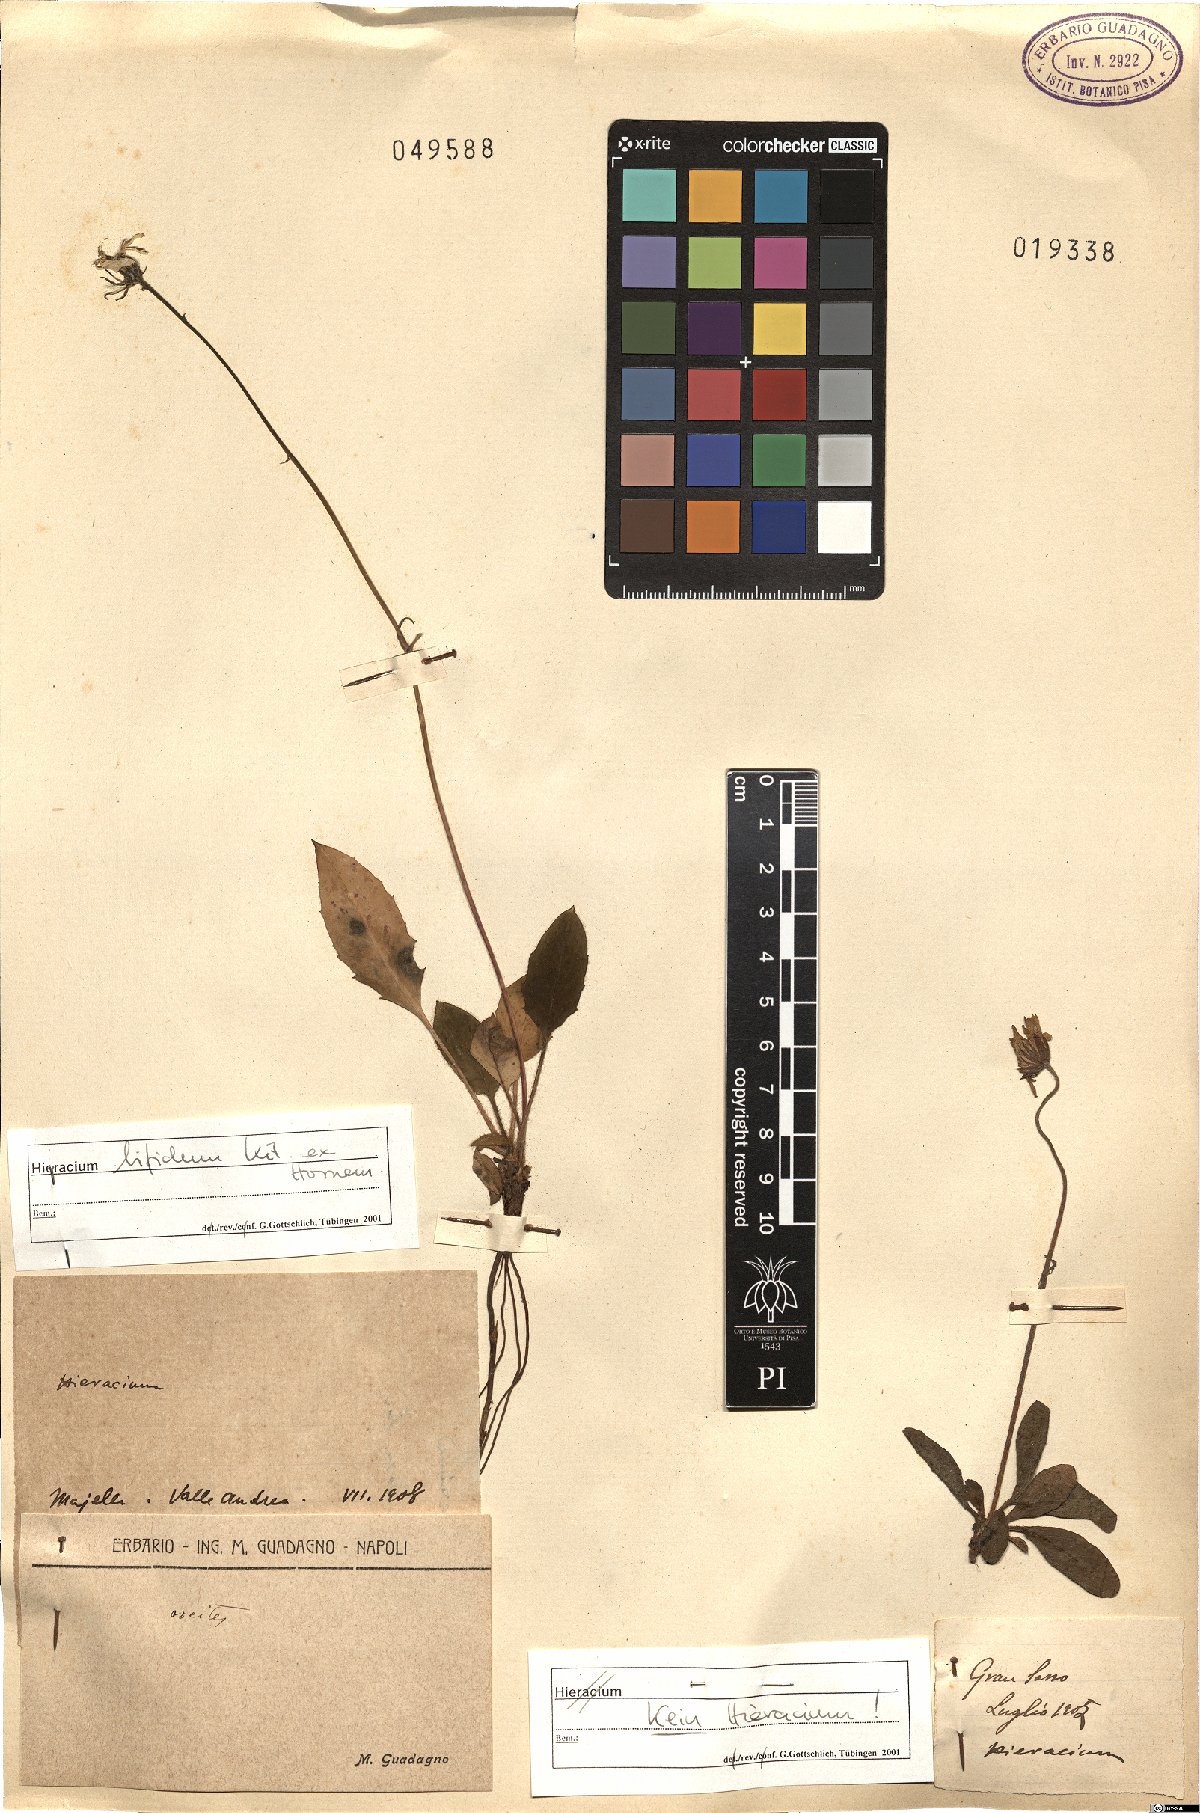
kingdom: Plantae
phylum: Tracheophyta
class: Magnoliopsida
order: Asterales
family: Asteraceae
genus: Hieracium
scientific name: Hieracium bifidum
